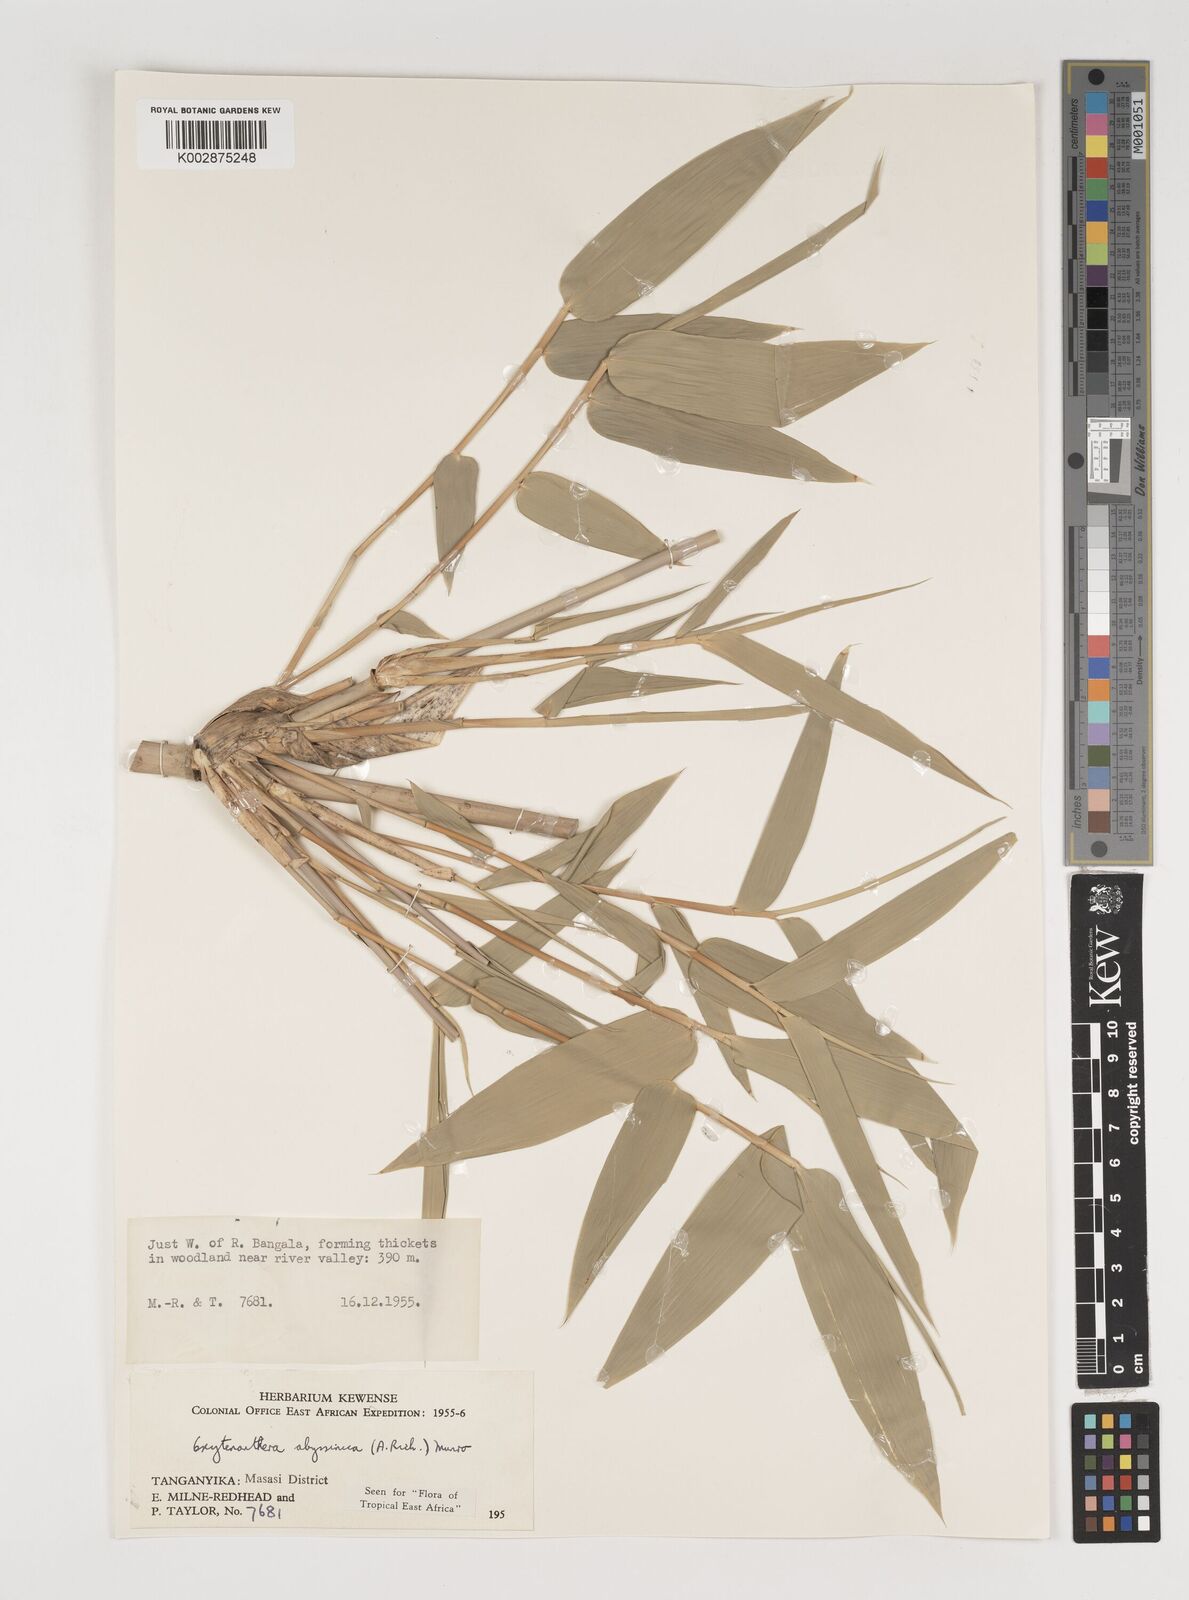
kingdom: Plantae
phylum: Tracheophyta
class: Liliopsida
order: Poales
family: Poaceae
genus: Oxytenanthera
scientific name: Oxytenanthera abyssinica
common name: Wine bamboo
